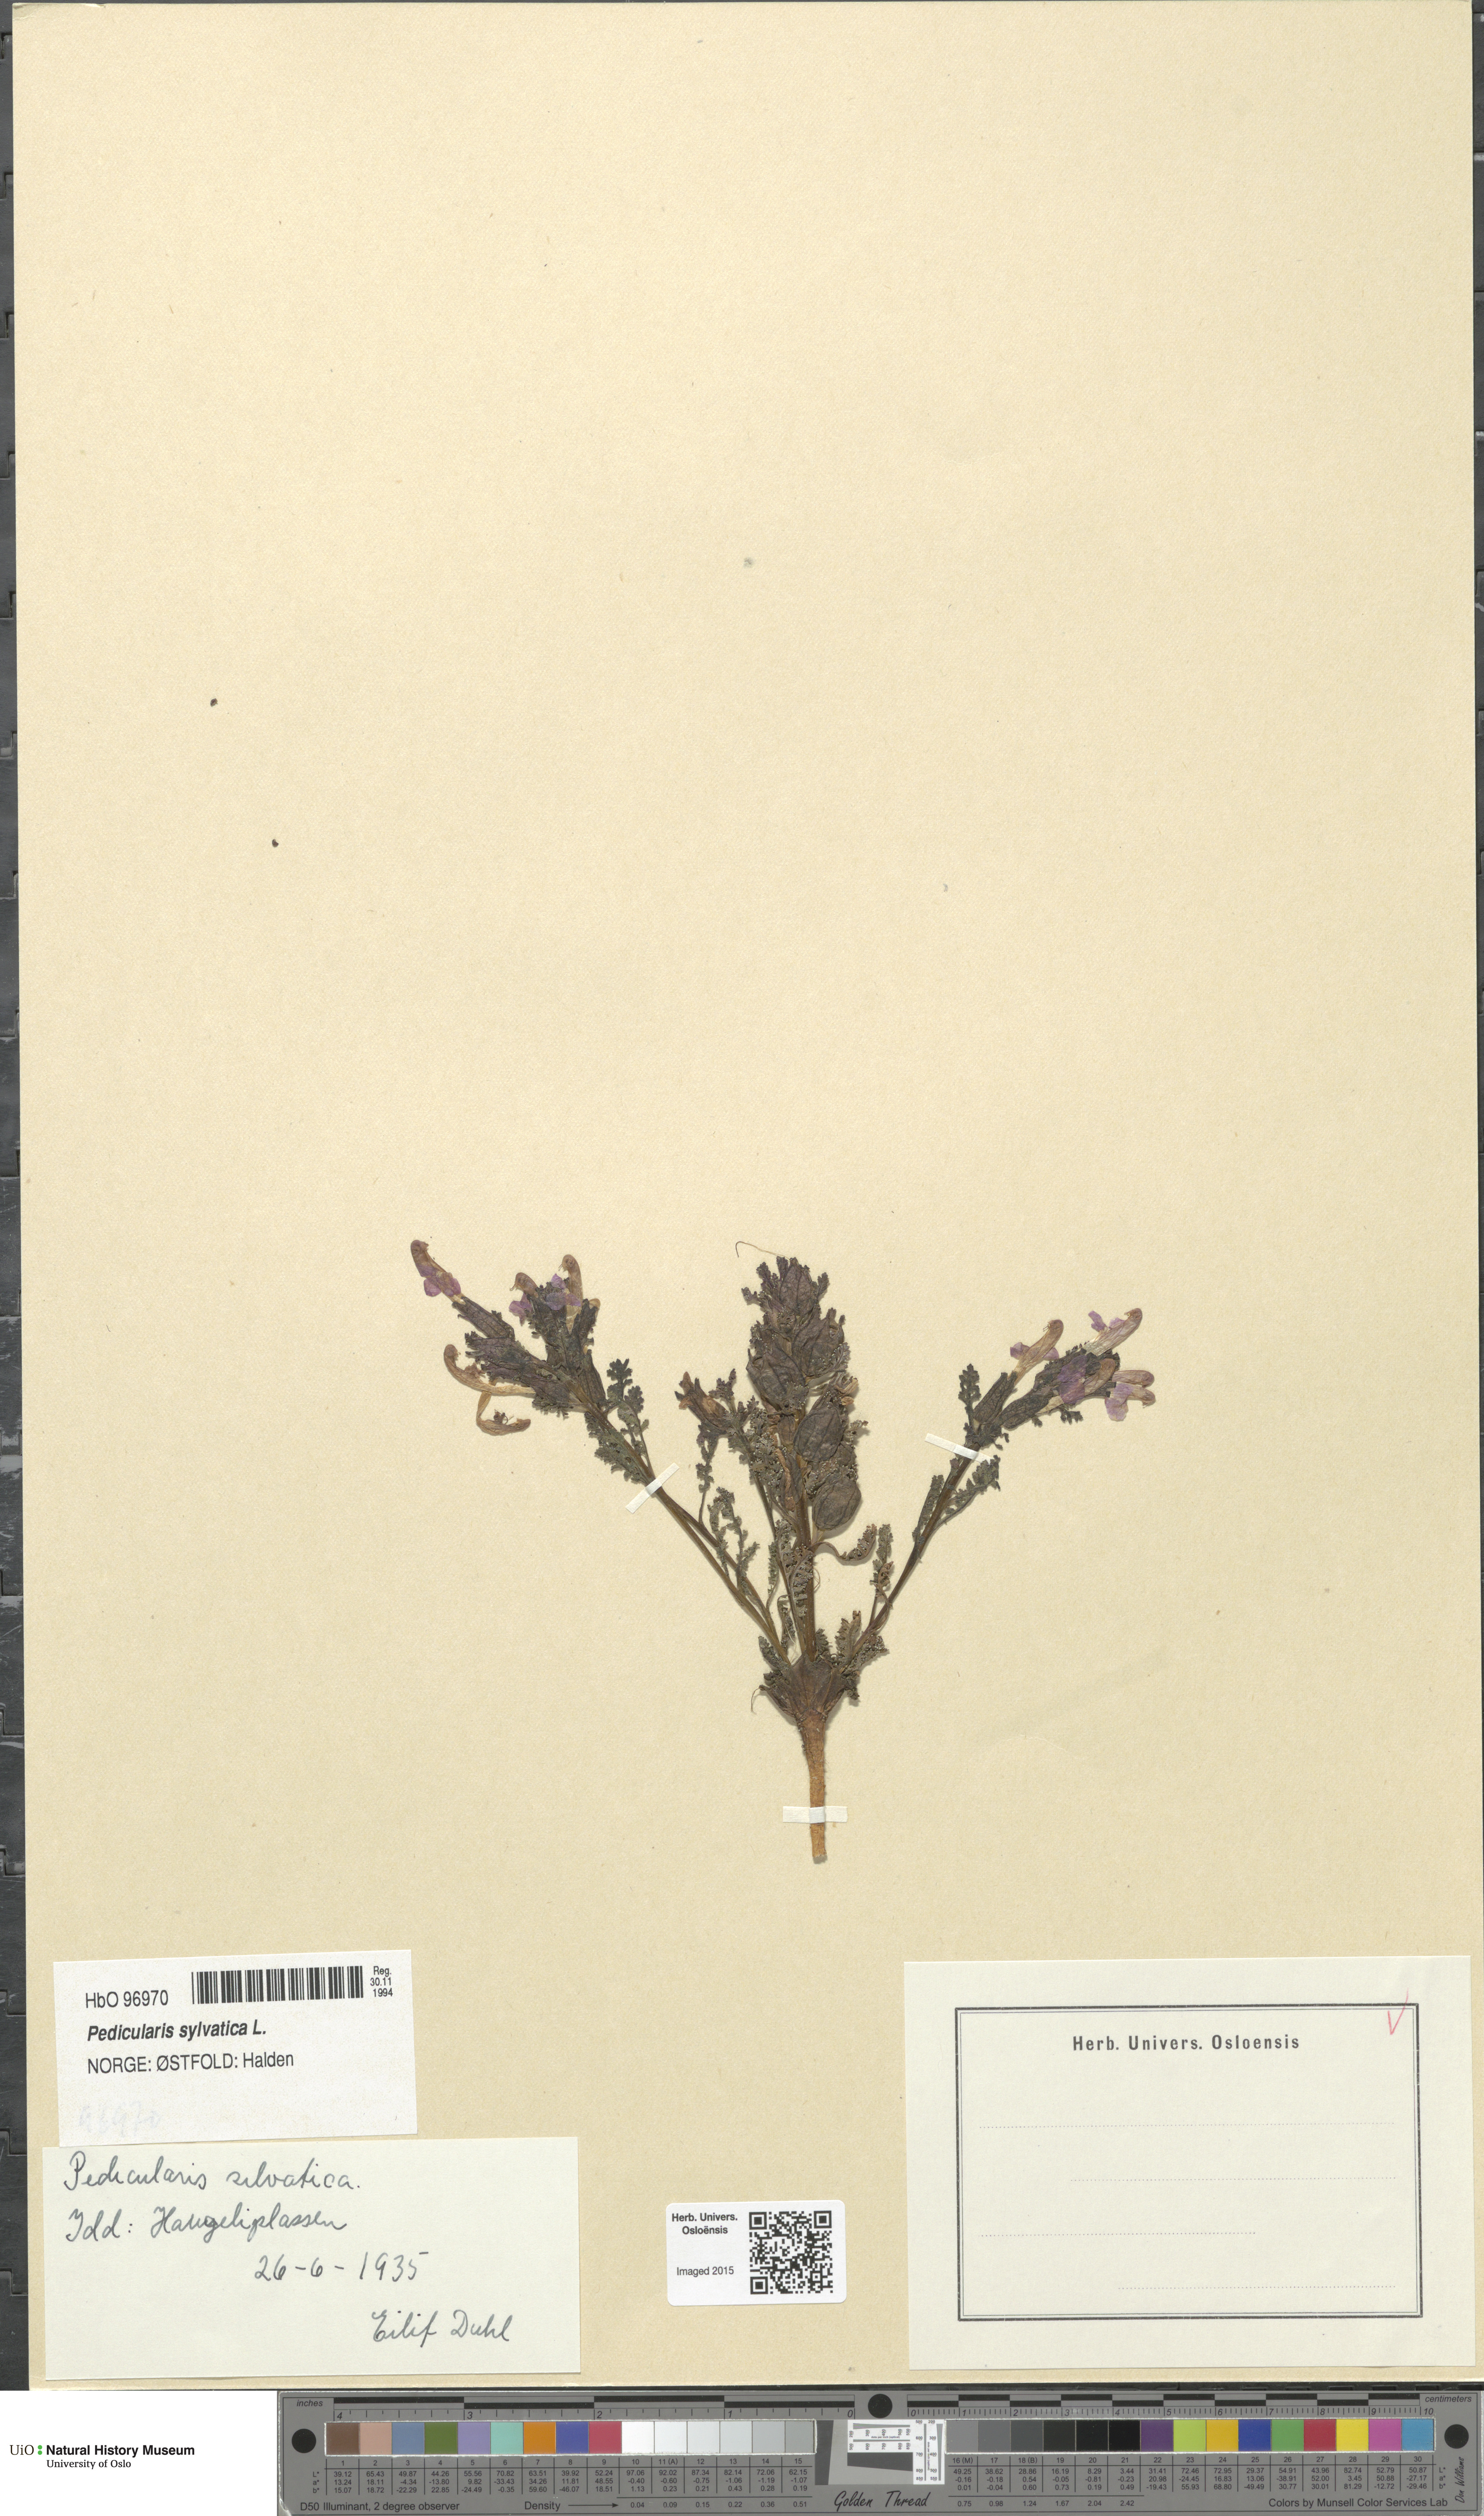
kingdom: Plantae
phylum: Tracheophyta
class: Magnoliopsida
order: Lamiales
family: Orobanchaceae
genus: Pedicularis
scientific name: Pedicularis sylvatica
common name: Lousewort
